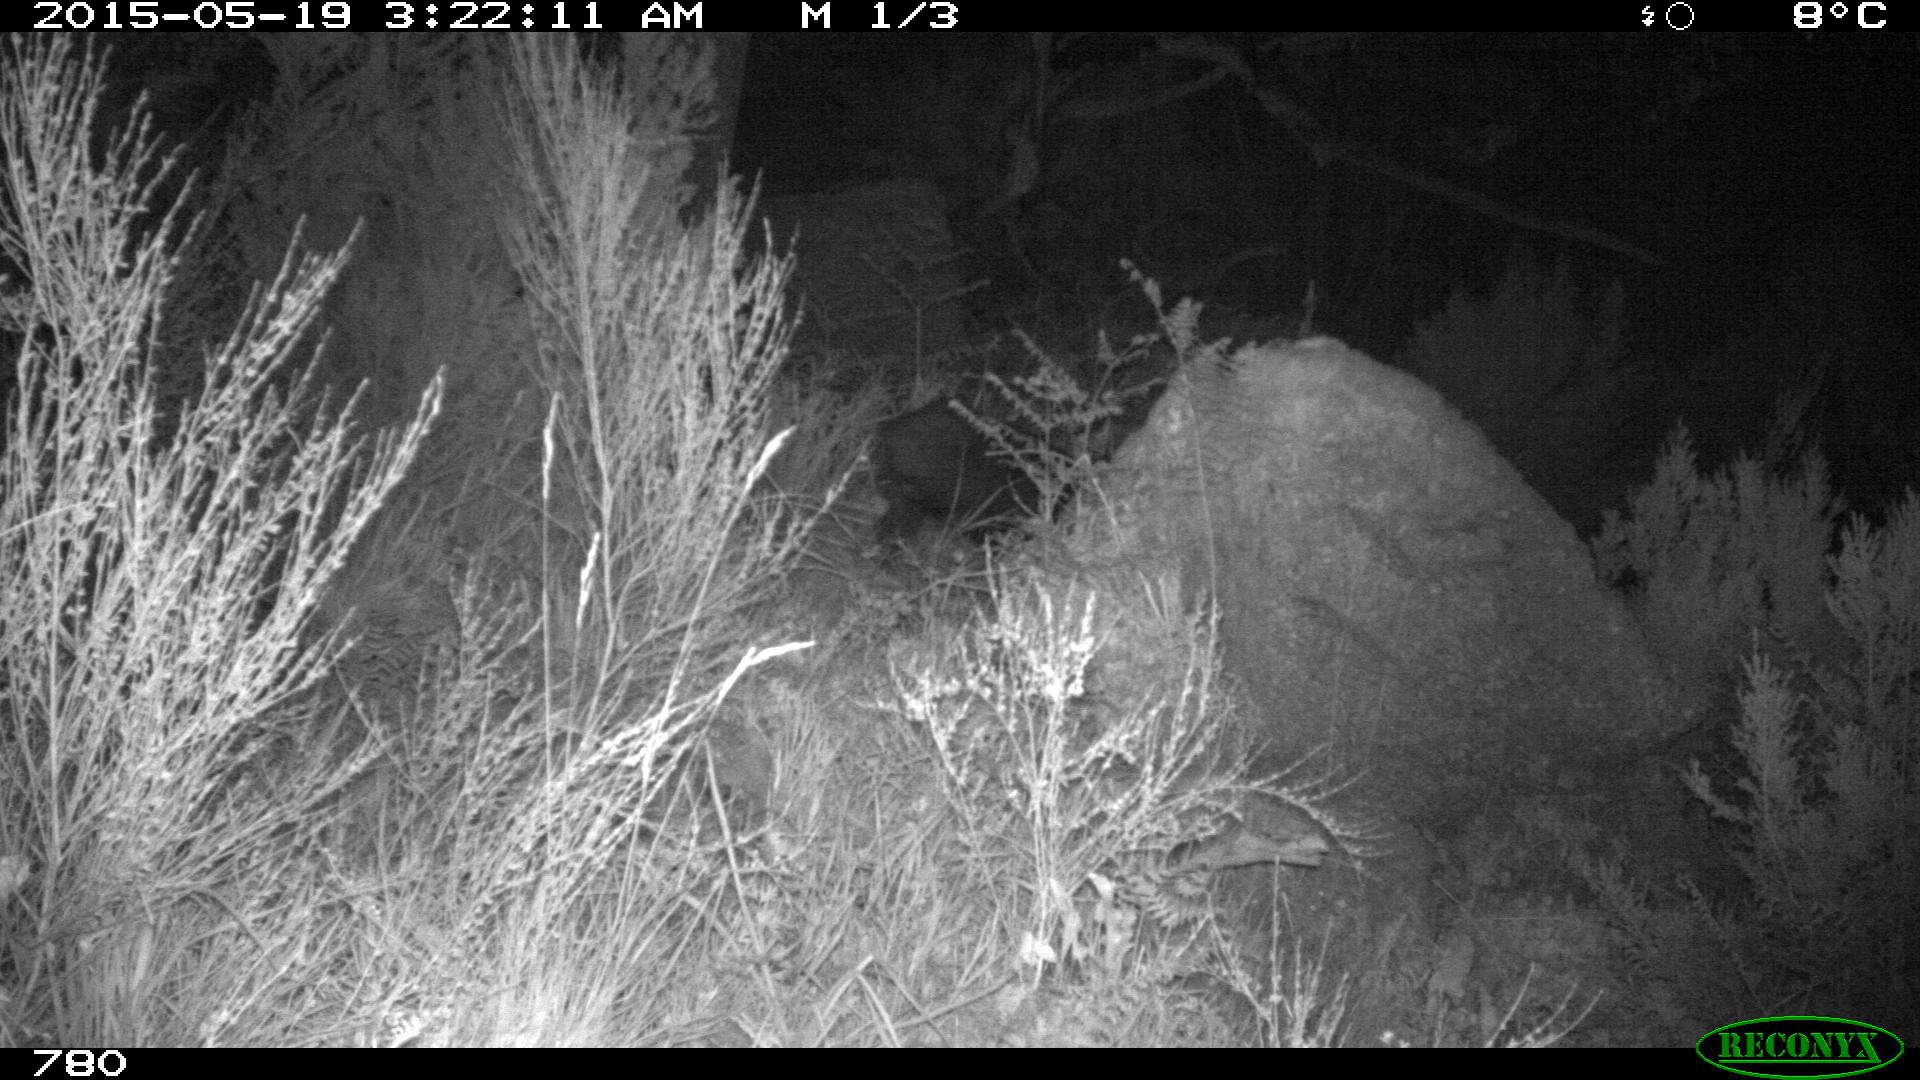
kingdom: Animalia
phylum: Chordata
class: Mammalia
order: Artiodactyla
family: Suidae
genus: Sus
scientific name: Sus scrofa
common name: Wild boar
